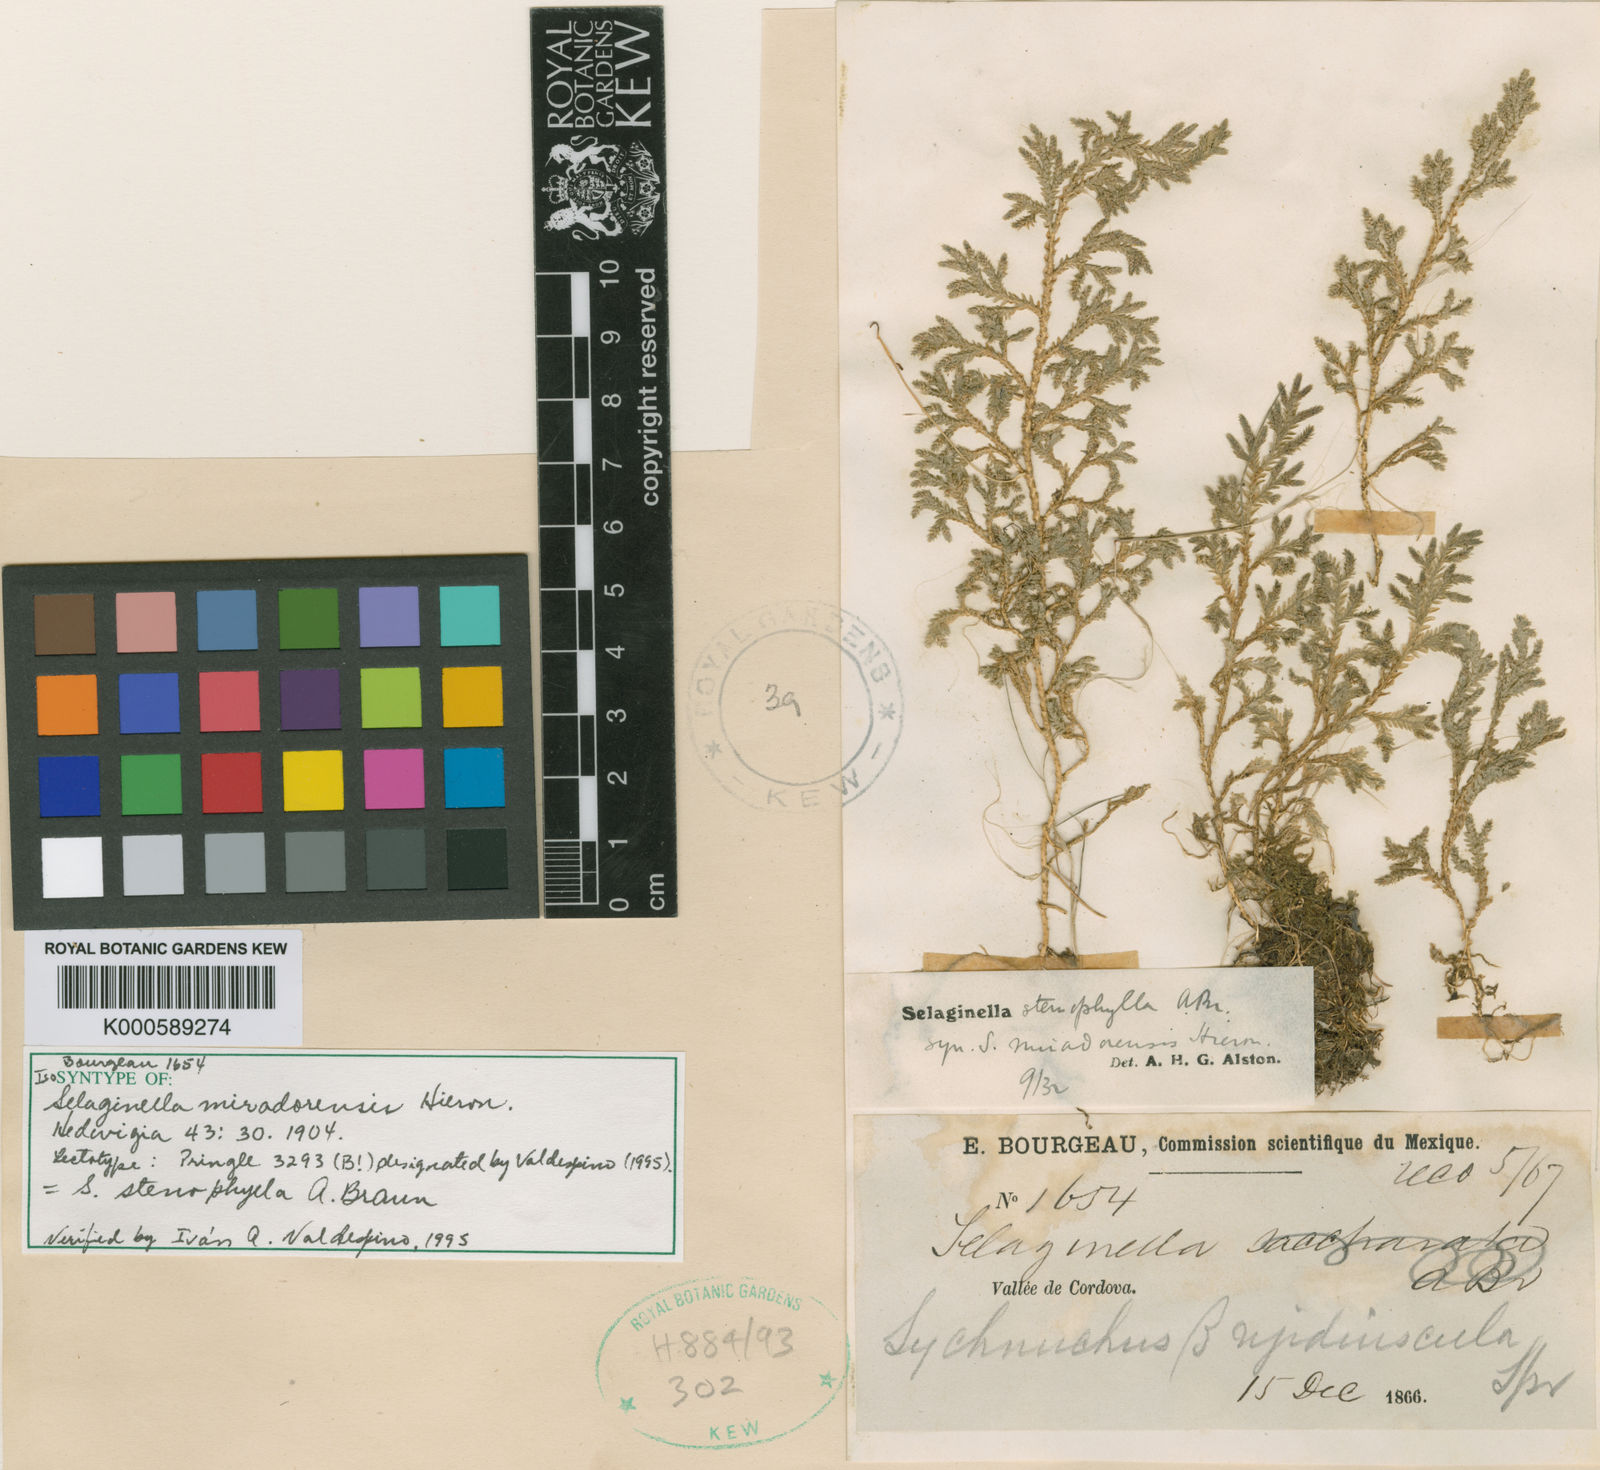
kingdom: Plantae
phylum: Tracheophyta
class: Lycopodiopsida
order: Selaginellales
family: Selaginellaceae
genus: Selaginella
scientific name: Selaginella stenophylla
